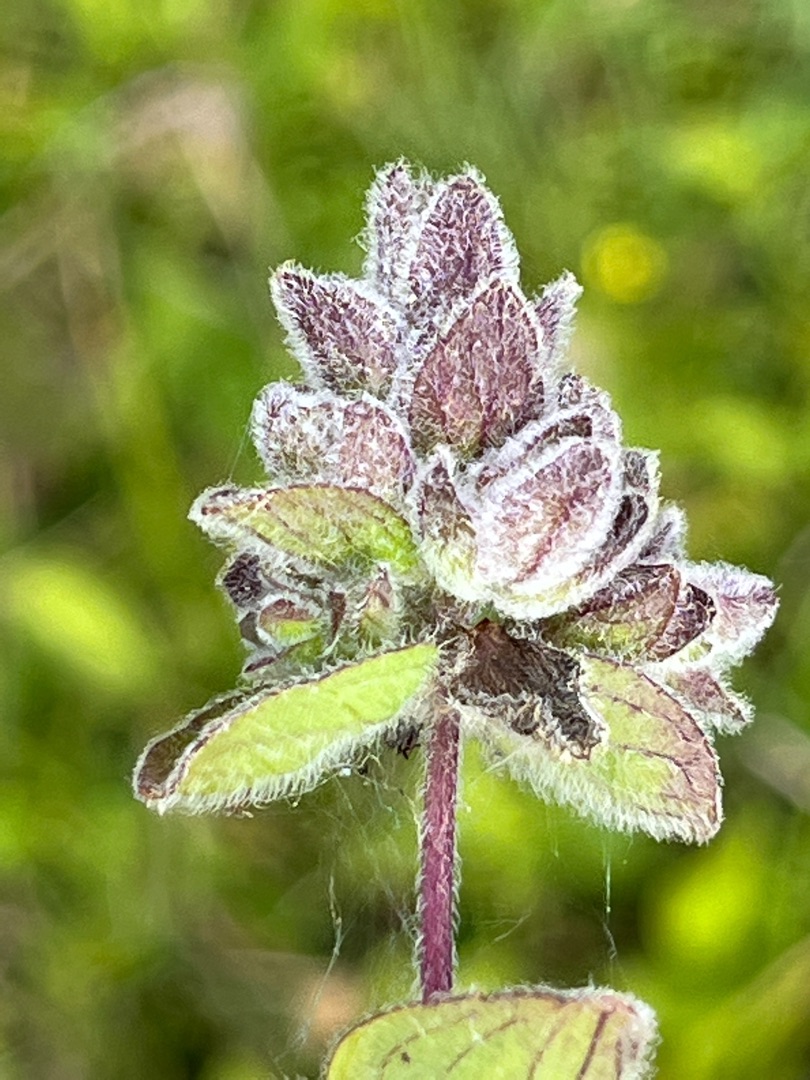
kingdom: Animalia
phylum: Arthropoda
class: Arachnida
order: Trombidiformes
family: Eriophyidae
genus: Aceria
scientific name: Aceria labiatiflorae
